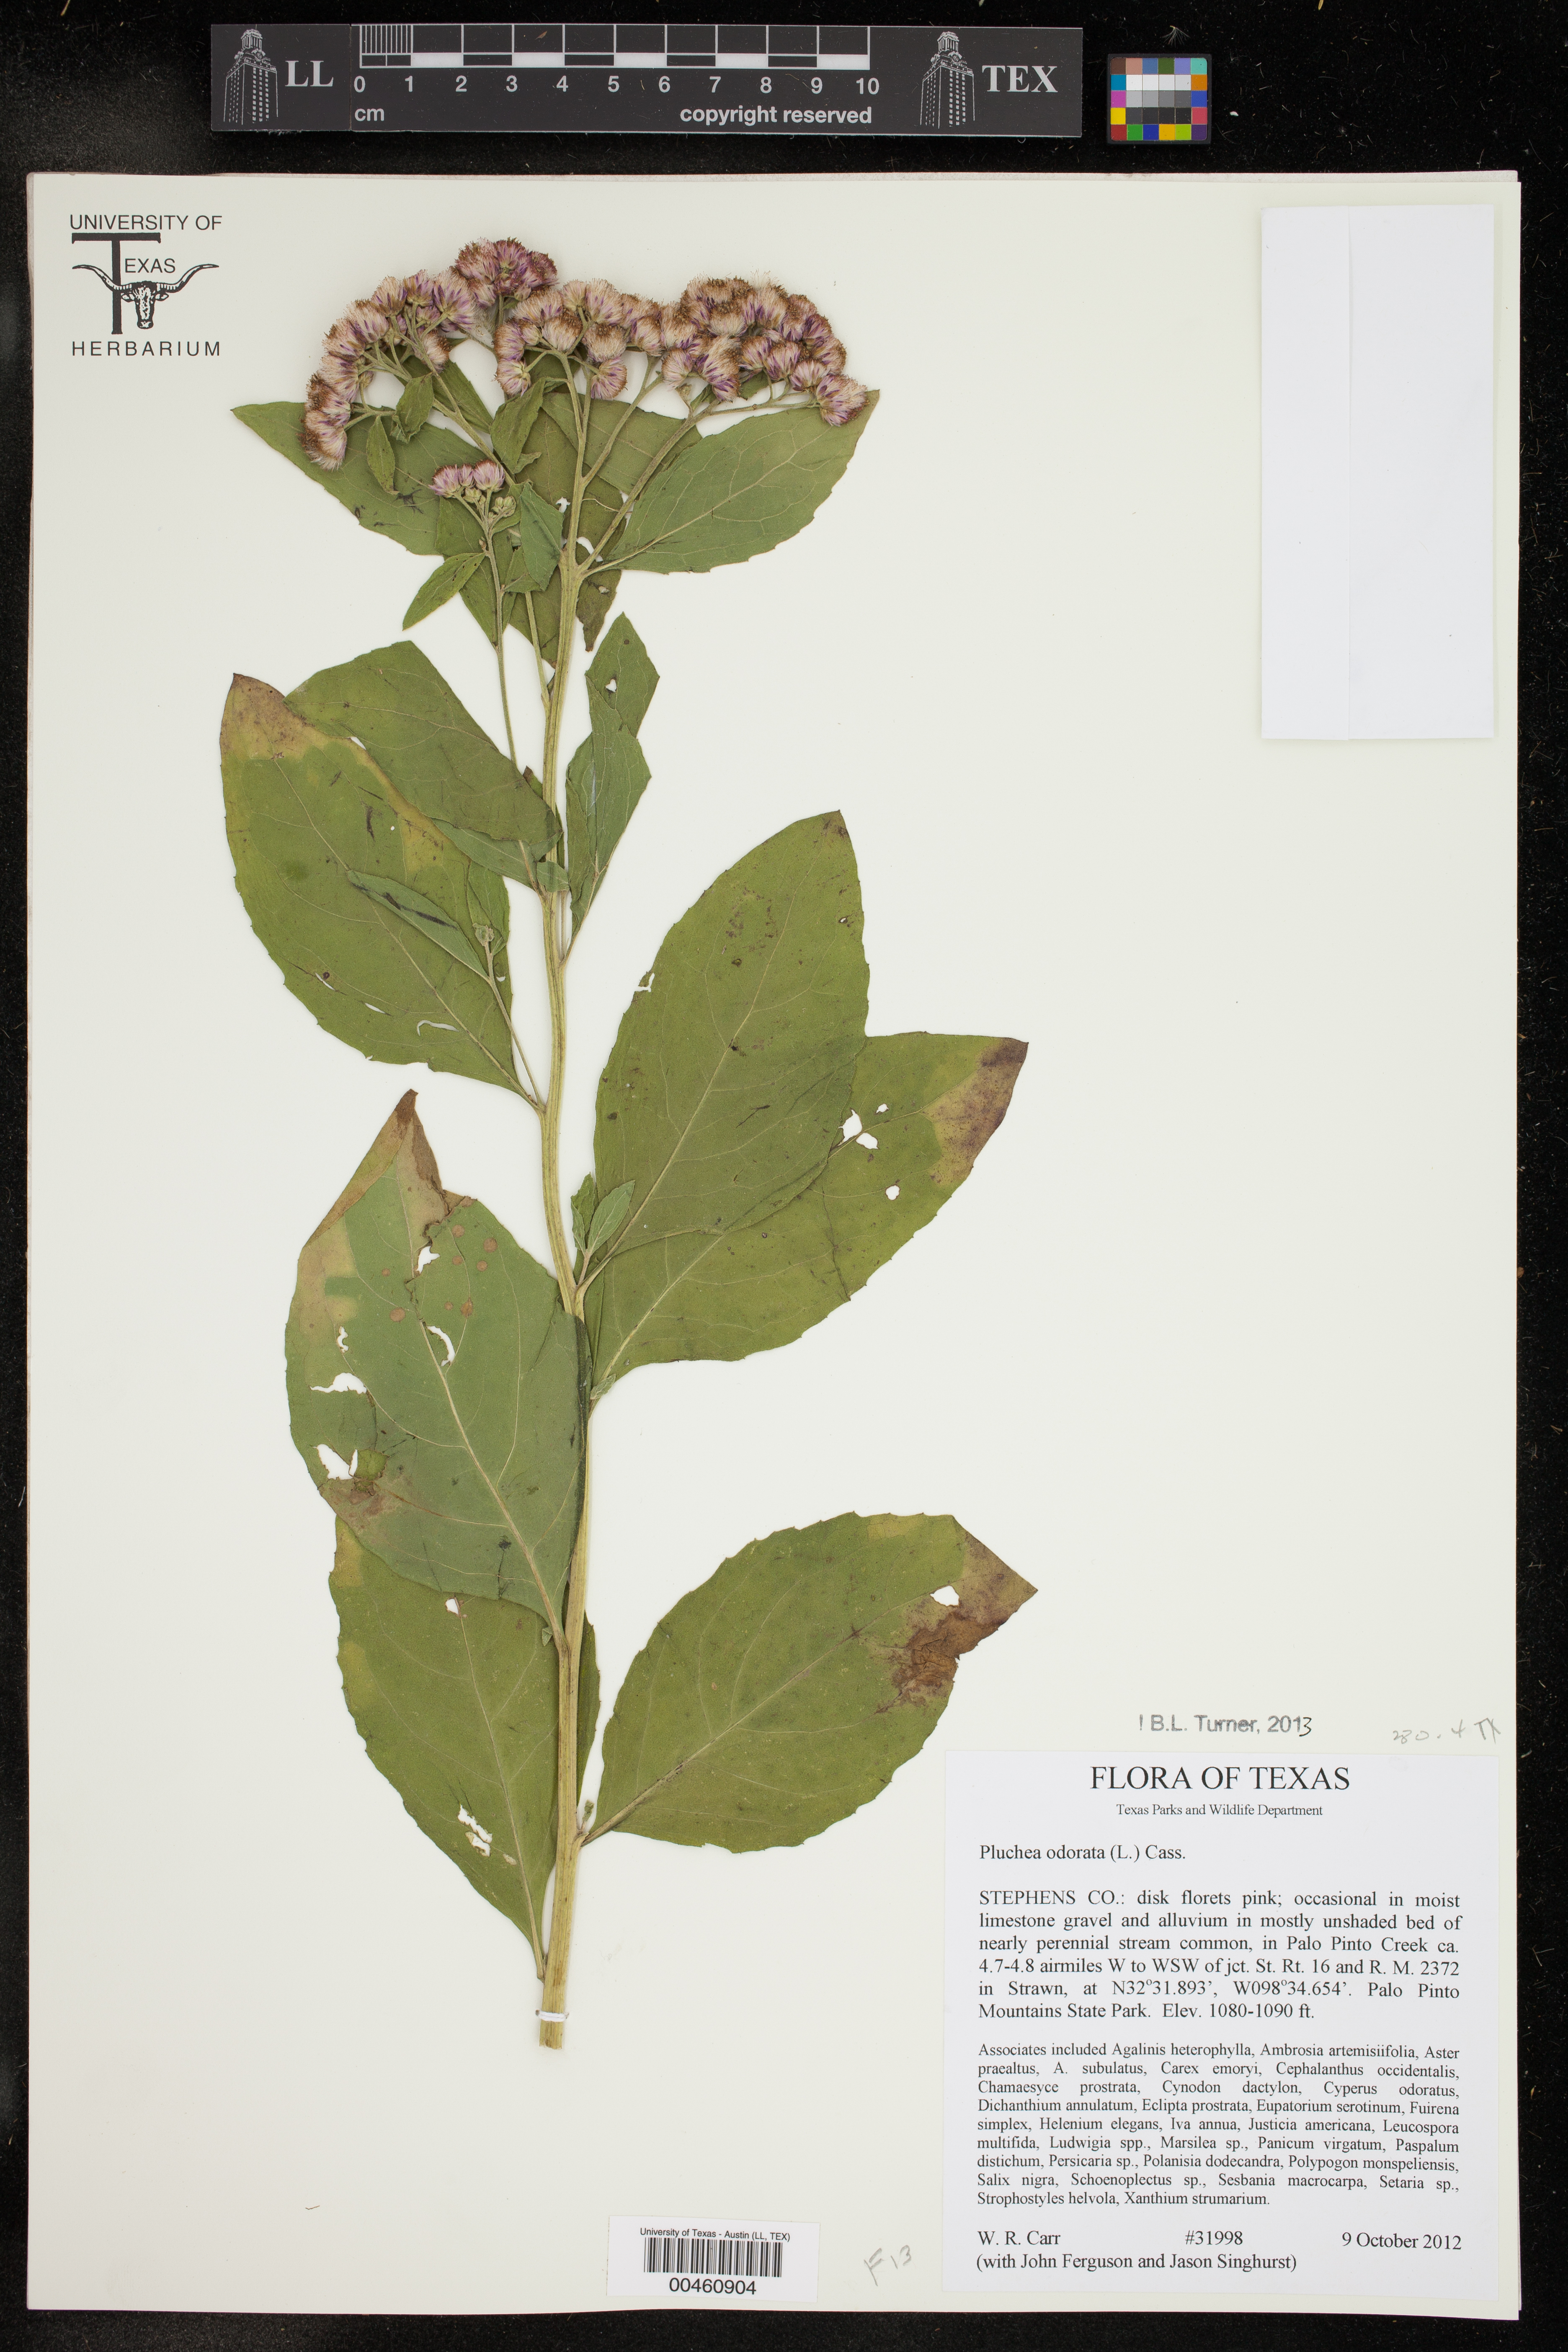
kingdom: Plantae
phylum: Tracheophyta
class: Magnoliopsida
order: Asterales
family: Asteraceae
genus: Pluchea
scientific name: Pluchea odorata
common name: Saltmarsh fleabane
